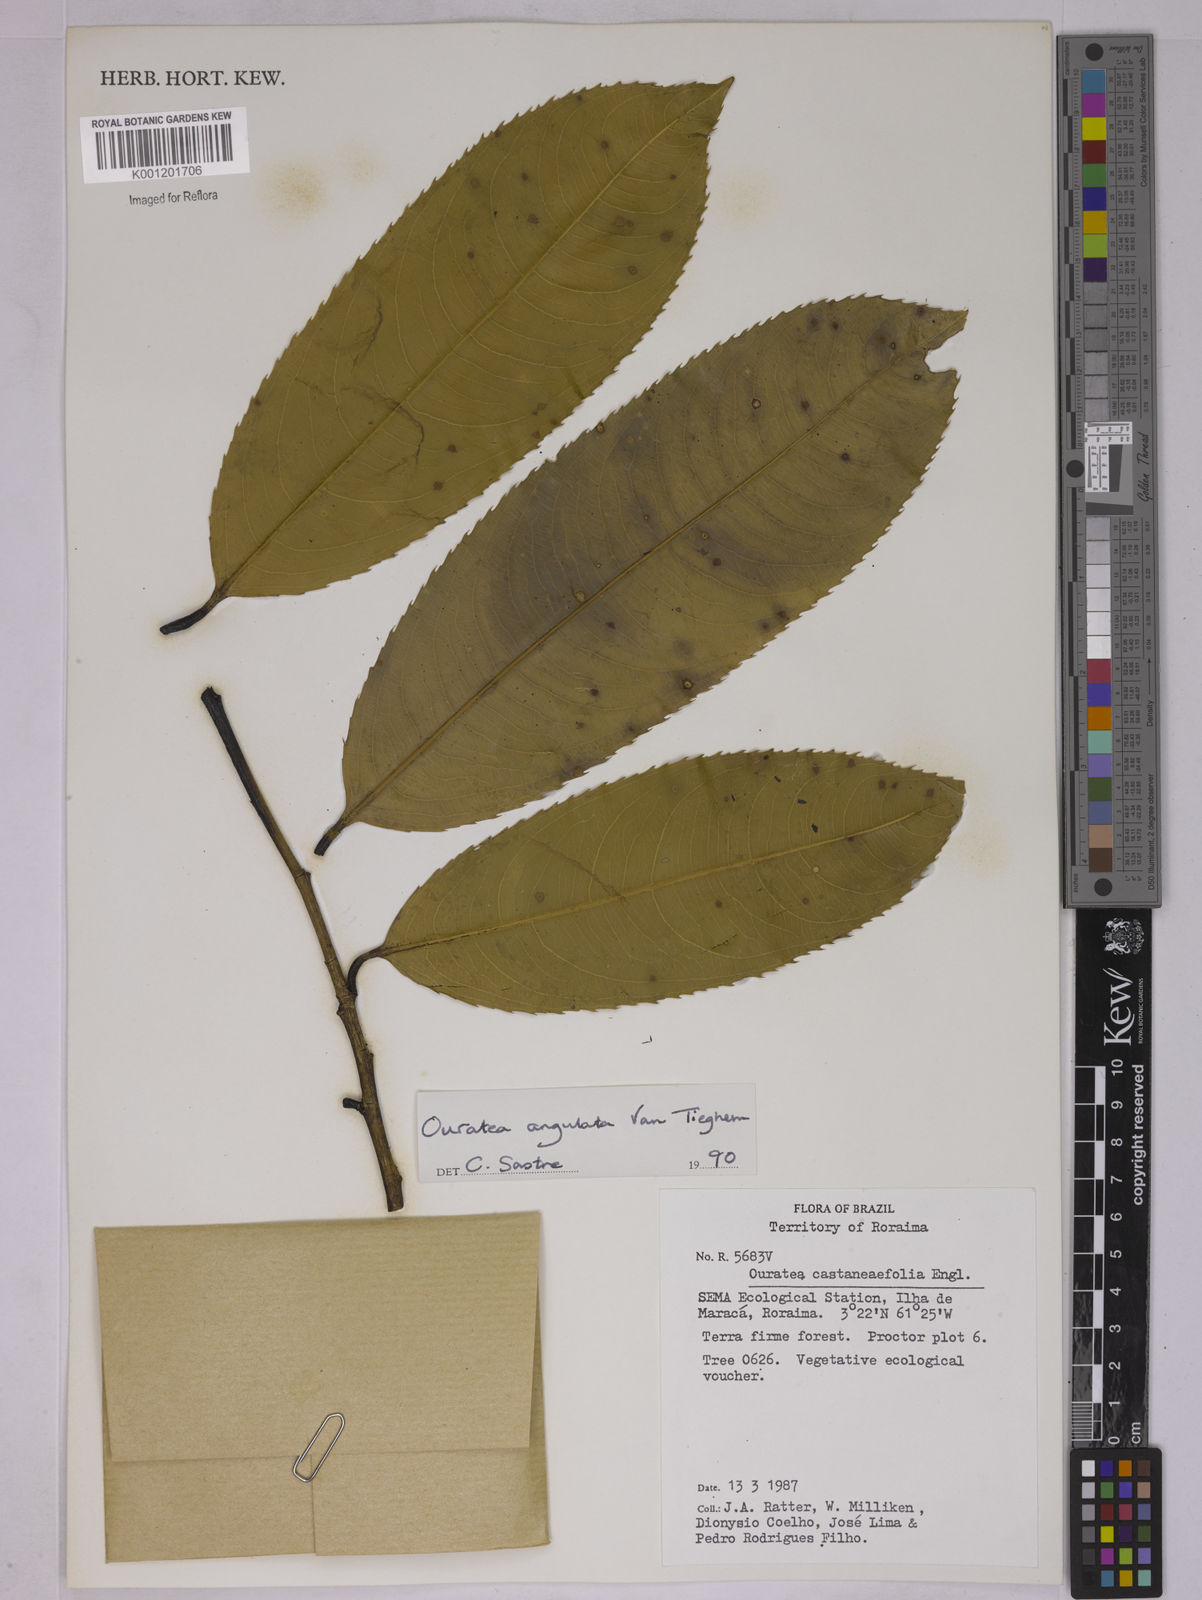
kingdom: Plantae
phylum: Tracheophyta
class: Magnoliopsida
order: Malpighiales
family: Ochnaceae
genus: Ouratea
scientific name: Ouratea castaneifolia
